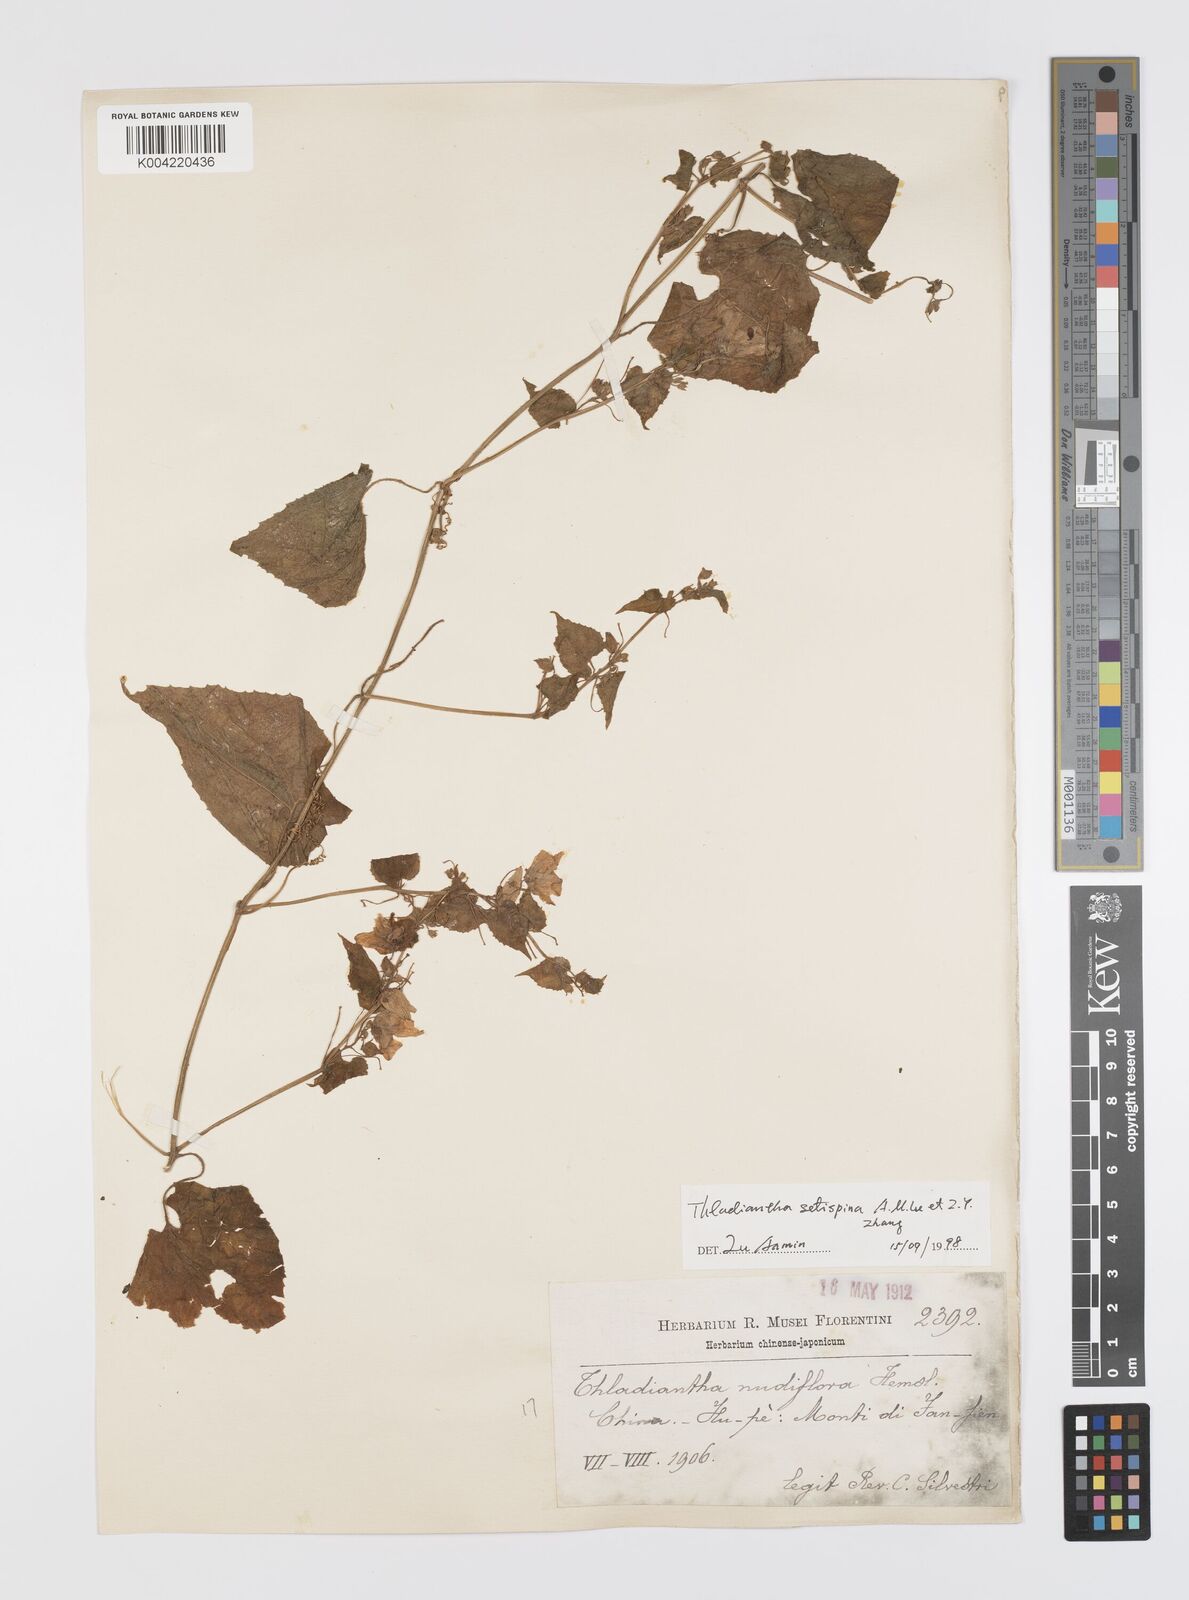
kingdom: Plantae
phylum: Tracheophyta
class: Magnoliopsida
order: Cucurbitales
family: Cucurbitaceae
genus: Thladiantha
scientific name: Thladiantha setispina
